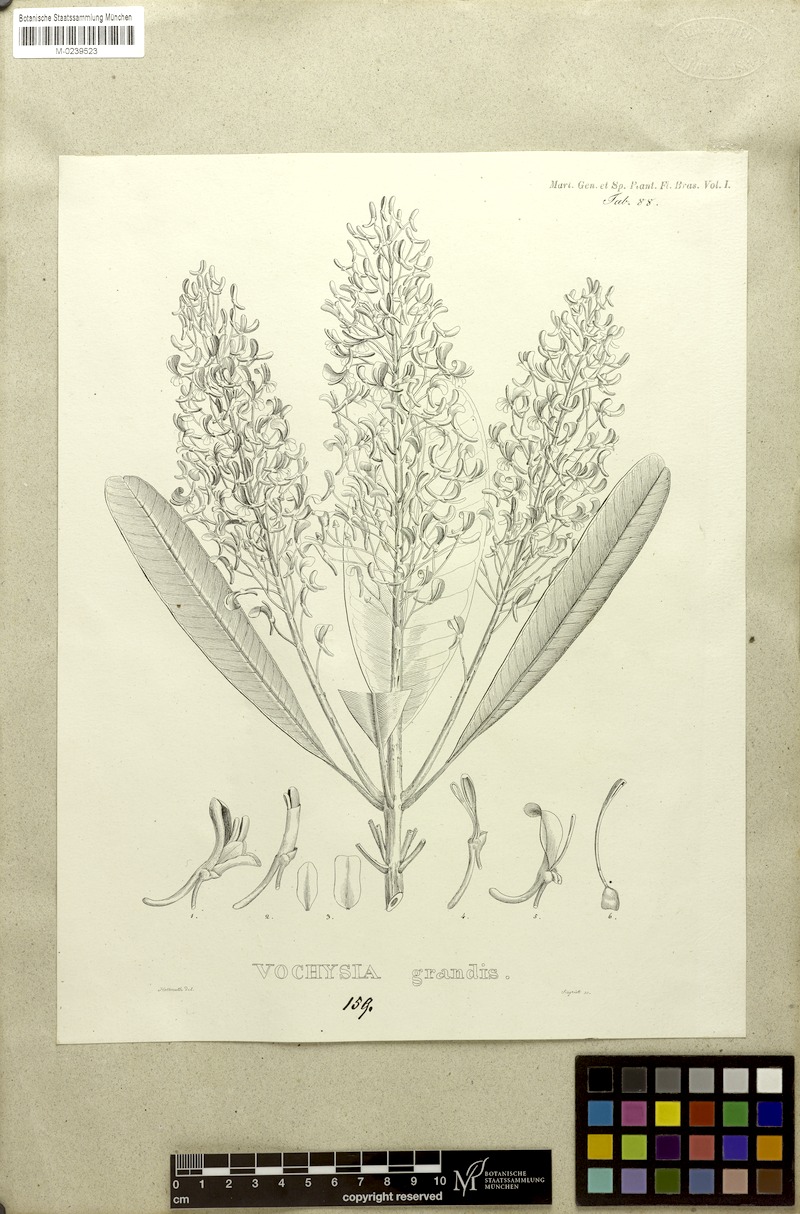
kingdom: Plantae
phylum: Tracheophyta
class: Magnoliopsida
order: Myrtales
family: Vochysiaceae
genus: Vochysia
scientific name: Vochysia grandis
